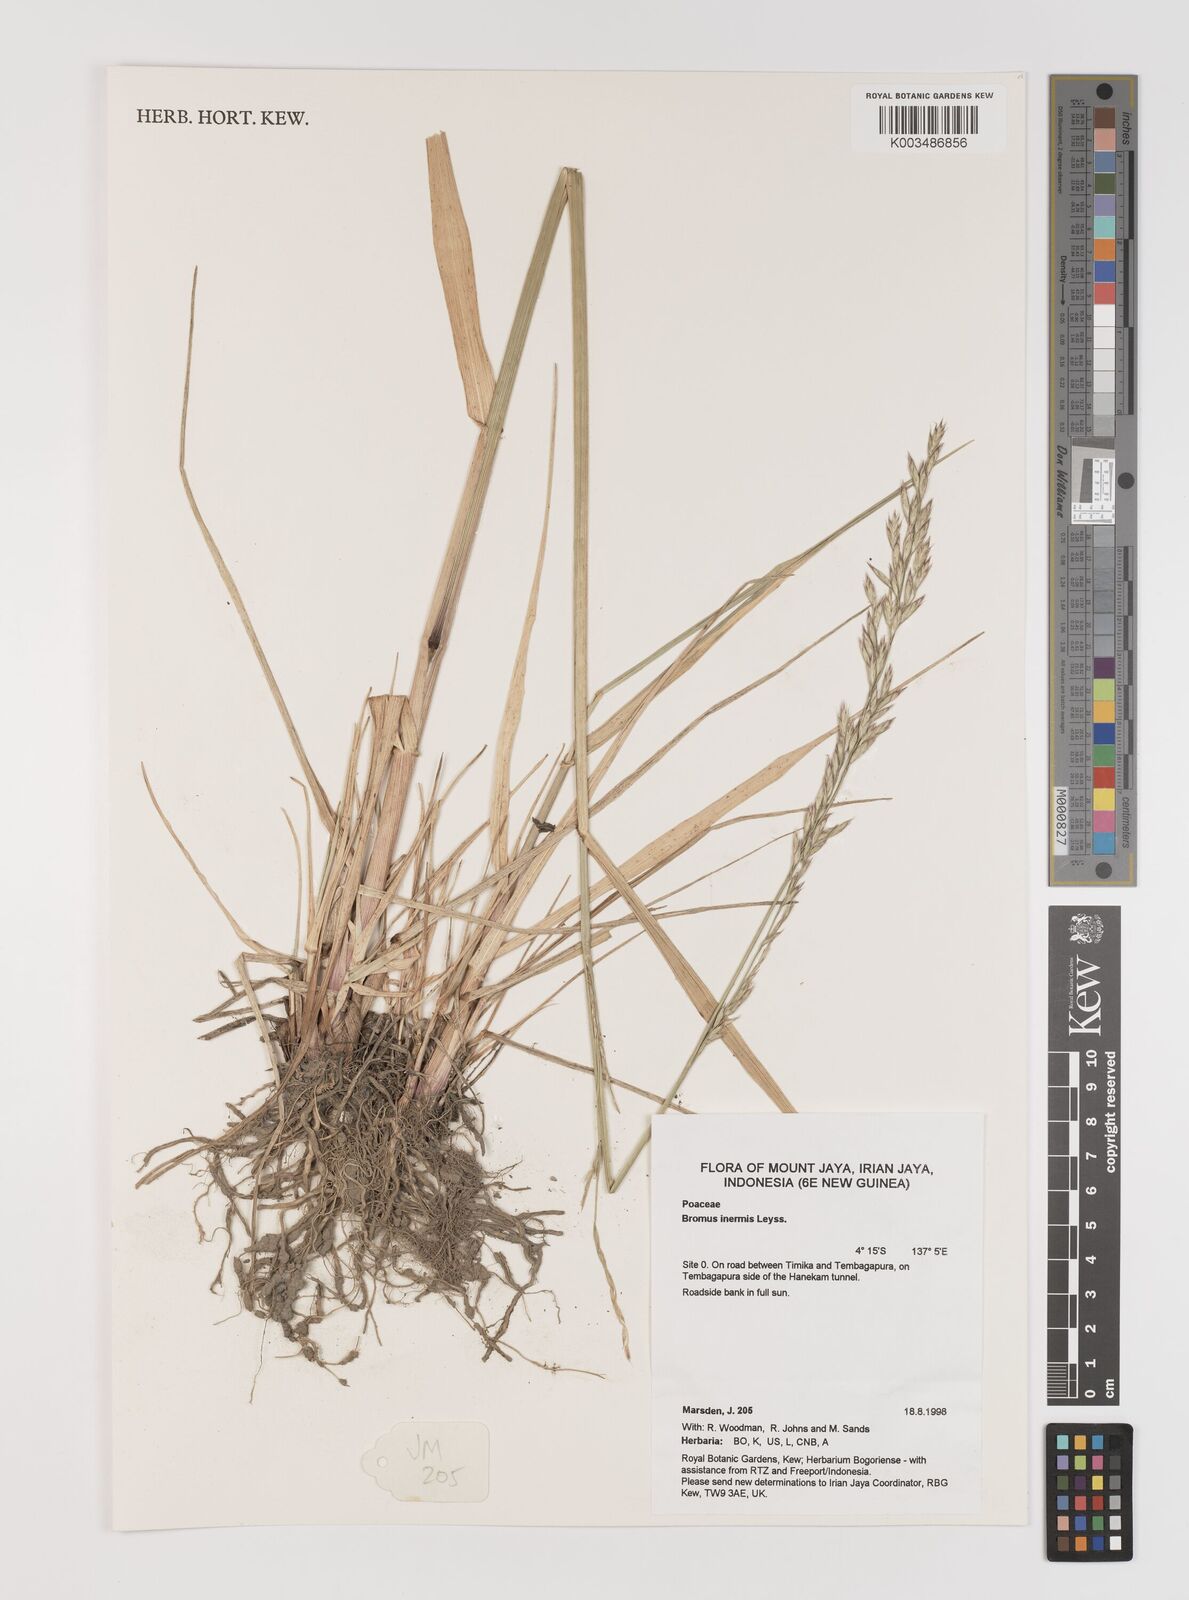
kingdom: Plantae
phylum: Tracheophyta
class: Liliopsida
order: Poales
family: Poaceae
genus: Bromus
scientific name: Bromus inermis
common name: Smooth brome
